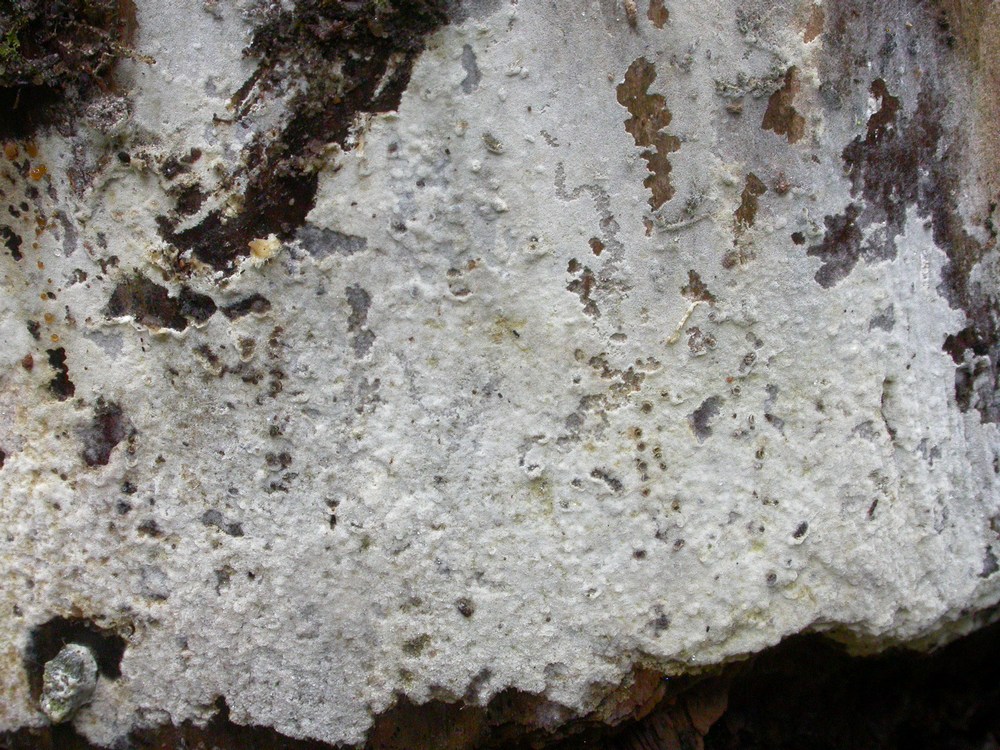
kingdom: Fungi
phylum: Basidiomycota
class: Agaricomycetes
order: Cantharellales
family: Botryobasidiaceae
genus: Botryobasidium
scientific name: Botryobasidium vagum
